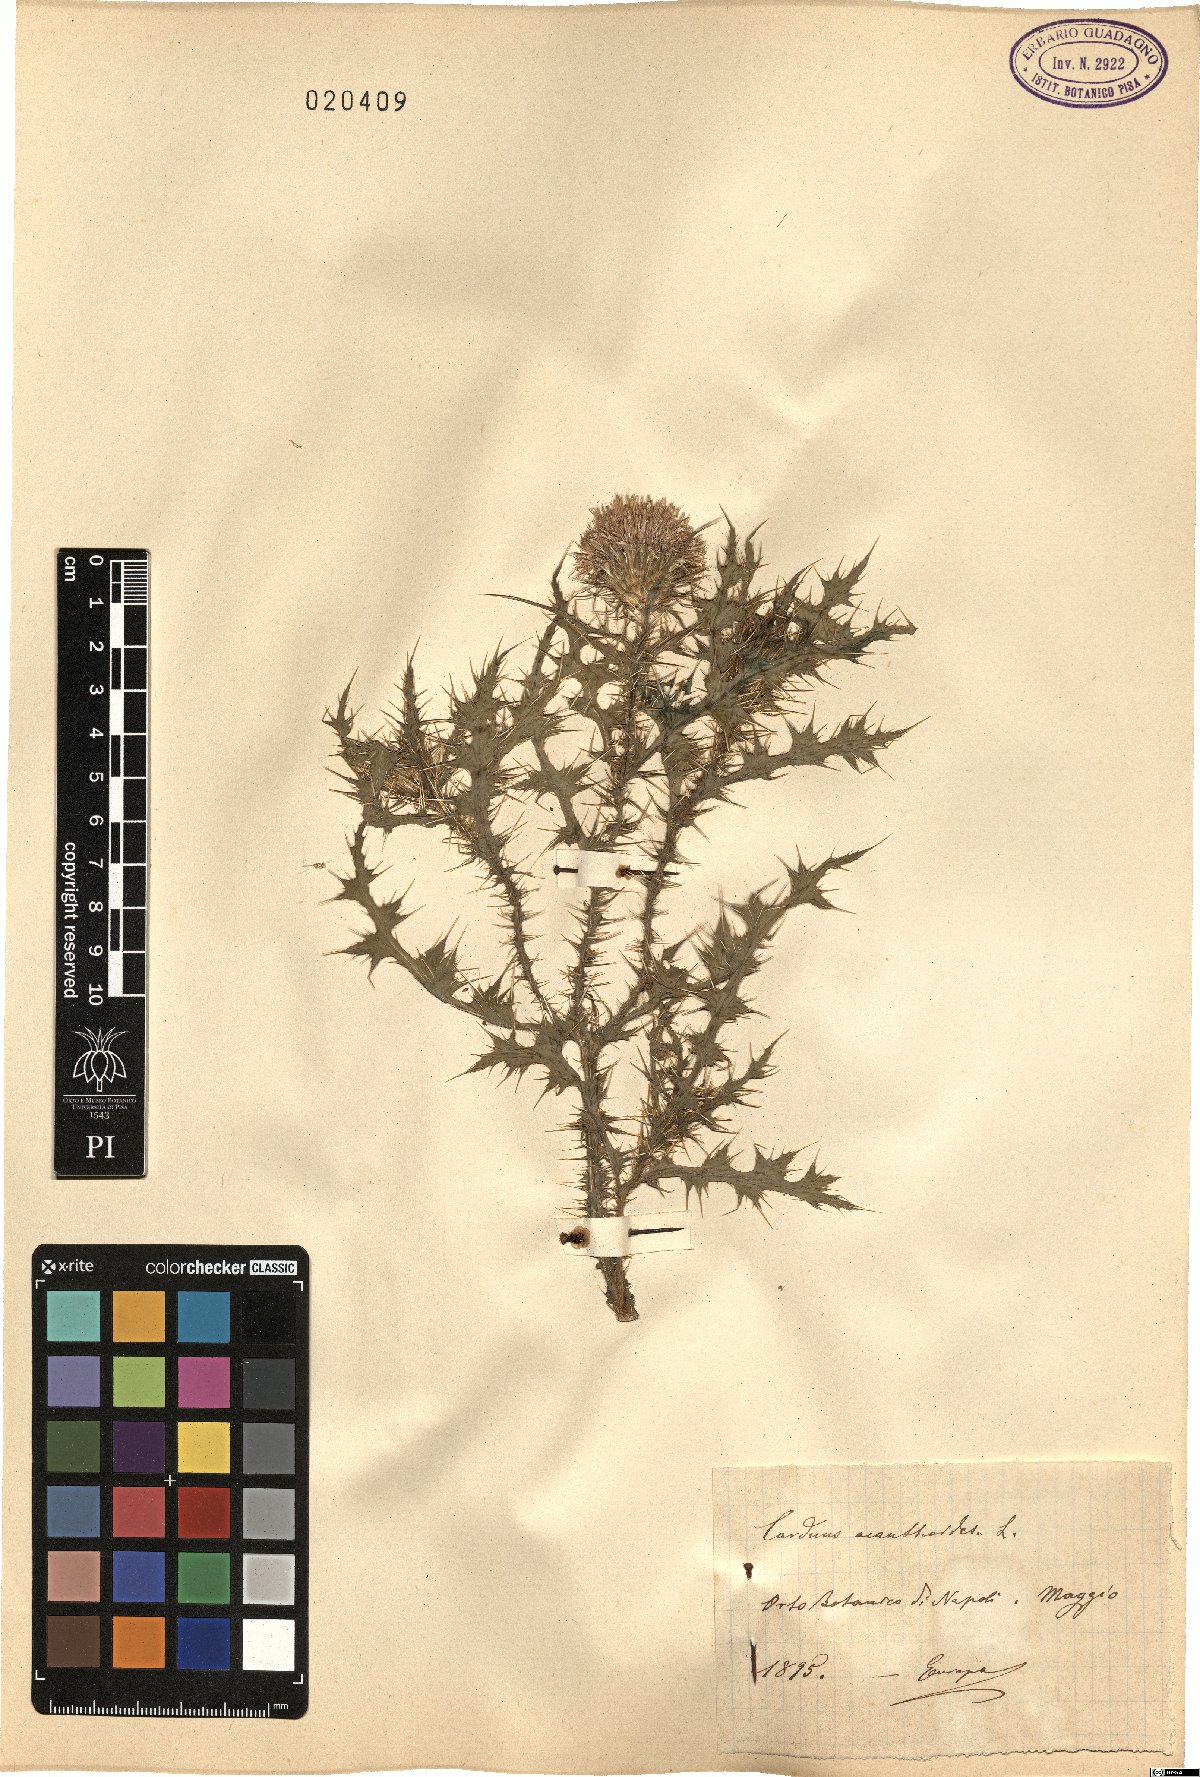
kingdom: Plantae
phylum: Tracheophyta
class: Magnoliopsida
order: Asterales
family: Asteraceae
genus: Carduus
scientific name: Carduus acanthoides
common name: Plumeless thistle
